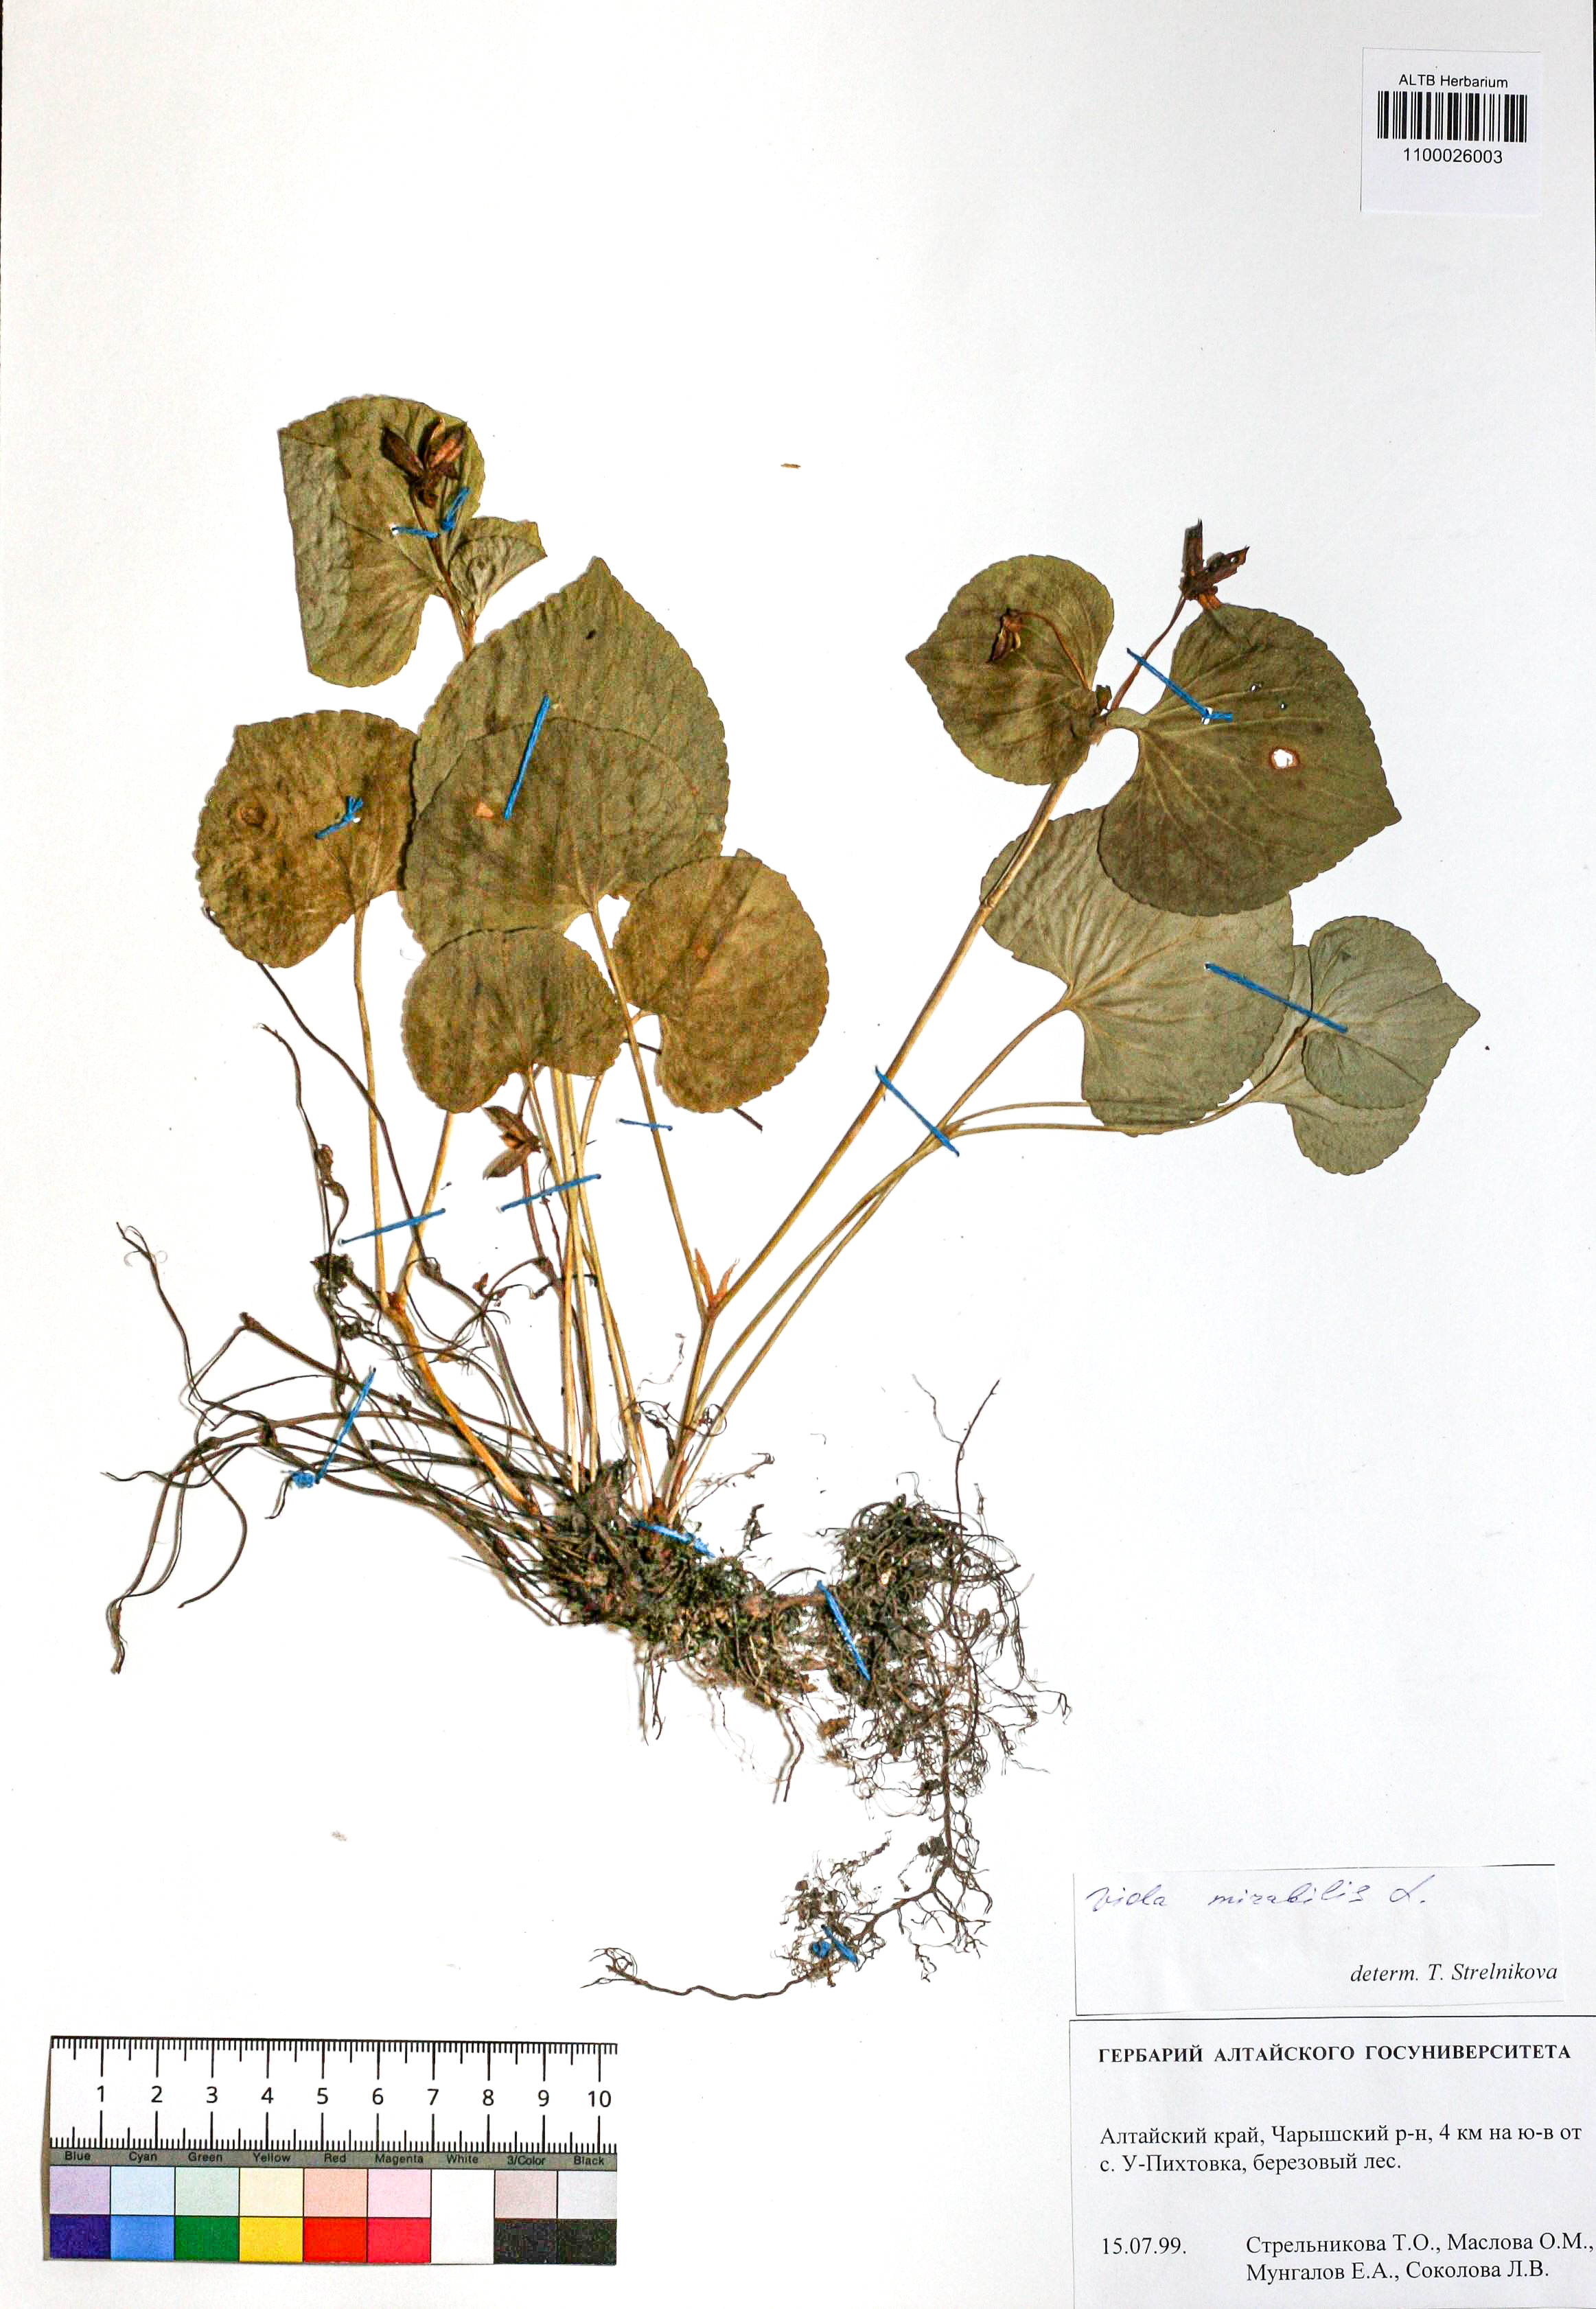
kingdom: Plantae
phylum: Tracheophyta
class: Magnoliopsida
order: Malpighiales
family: Violaceae
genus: Viola
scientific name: Viola mirabilis
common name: Wonder violet
